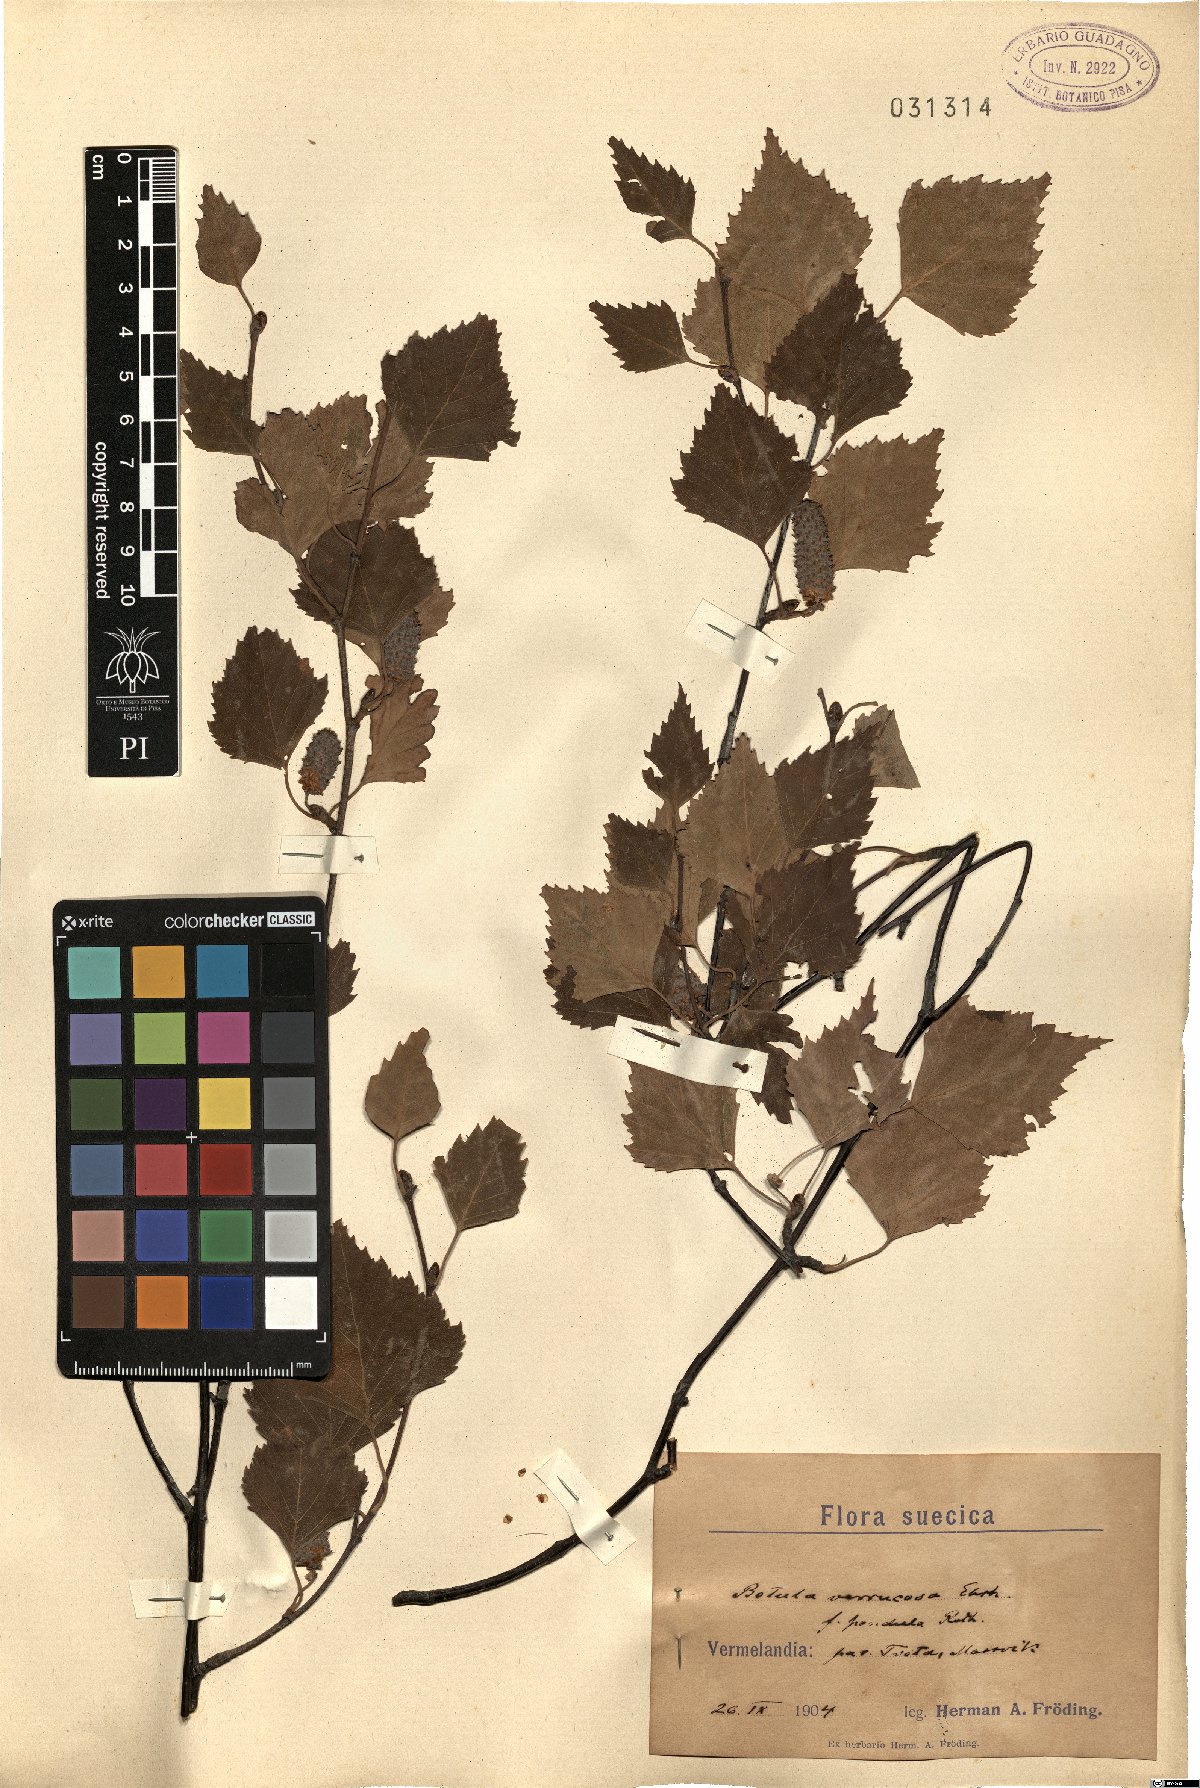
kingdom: Plantae
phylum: Tracheophyta
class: Magnoliopsida
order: Fagales
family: Betulaceae
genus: Betula
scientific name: Betula pendula
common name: Silver birch
